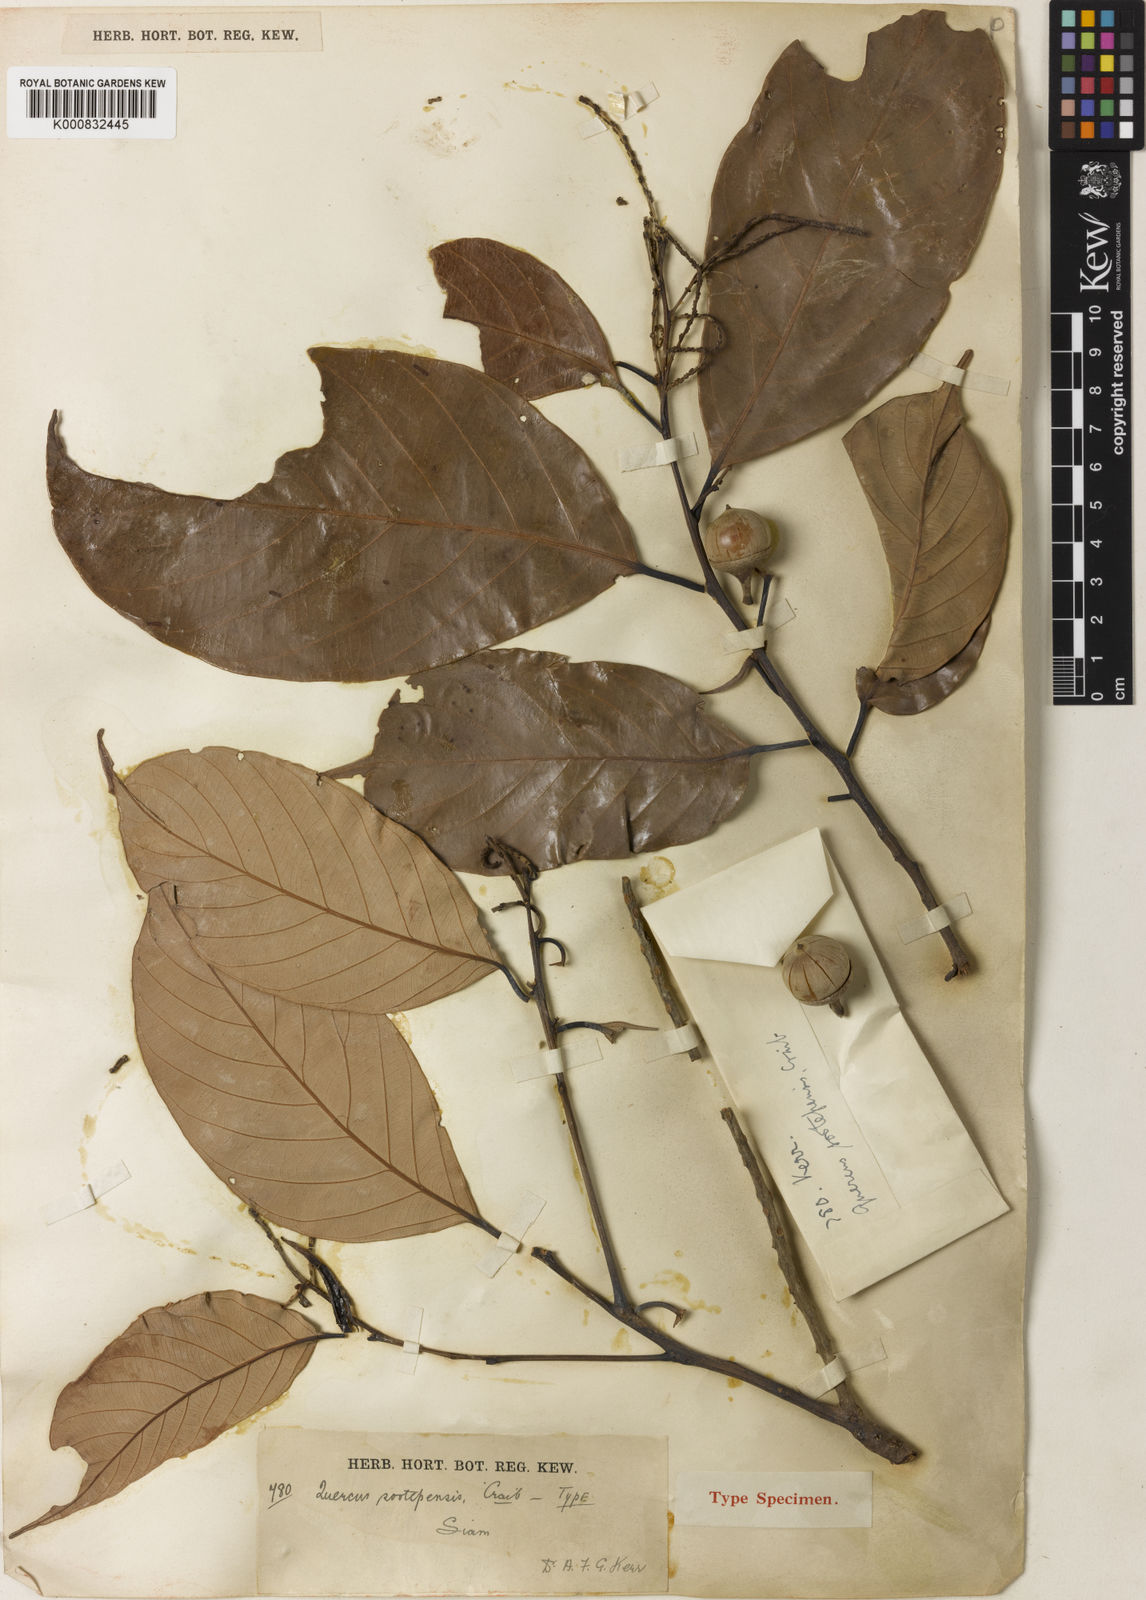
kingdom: Plantae
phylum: Tracheophyta
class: Magnoliopsida
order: Fagales
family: Fagaceae
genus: Lithocarpus
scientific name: Lithocarpus sootepensis
